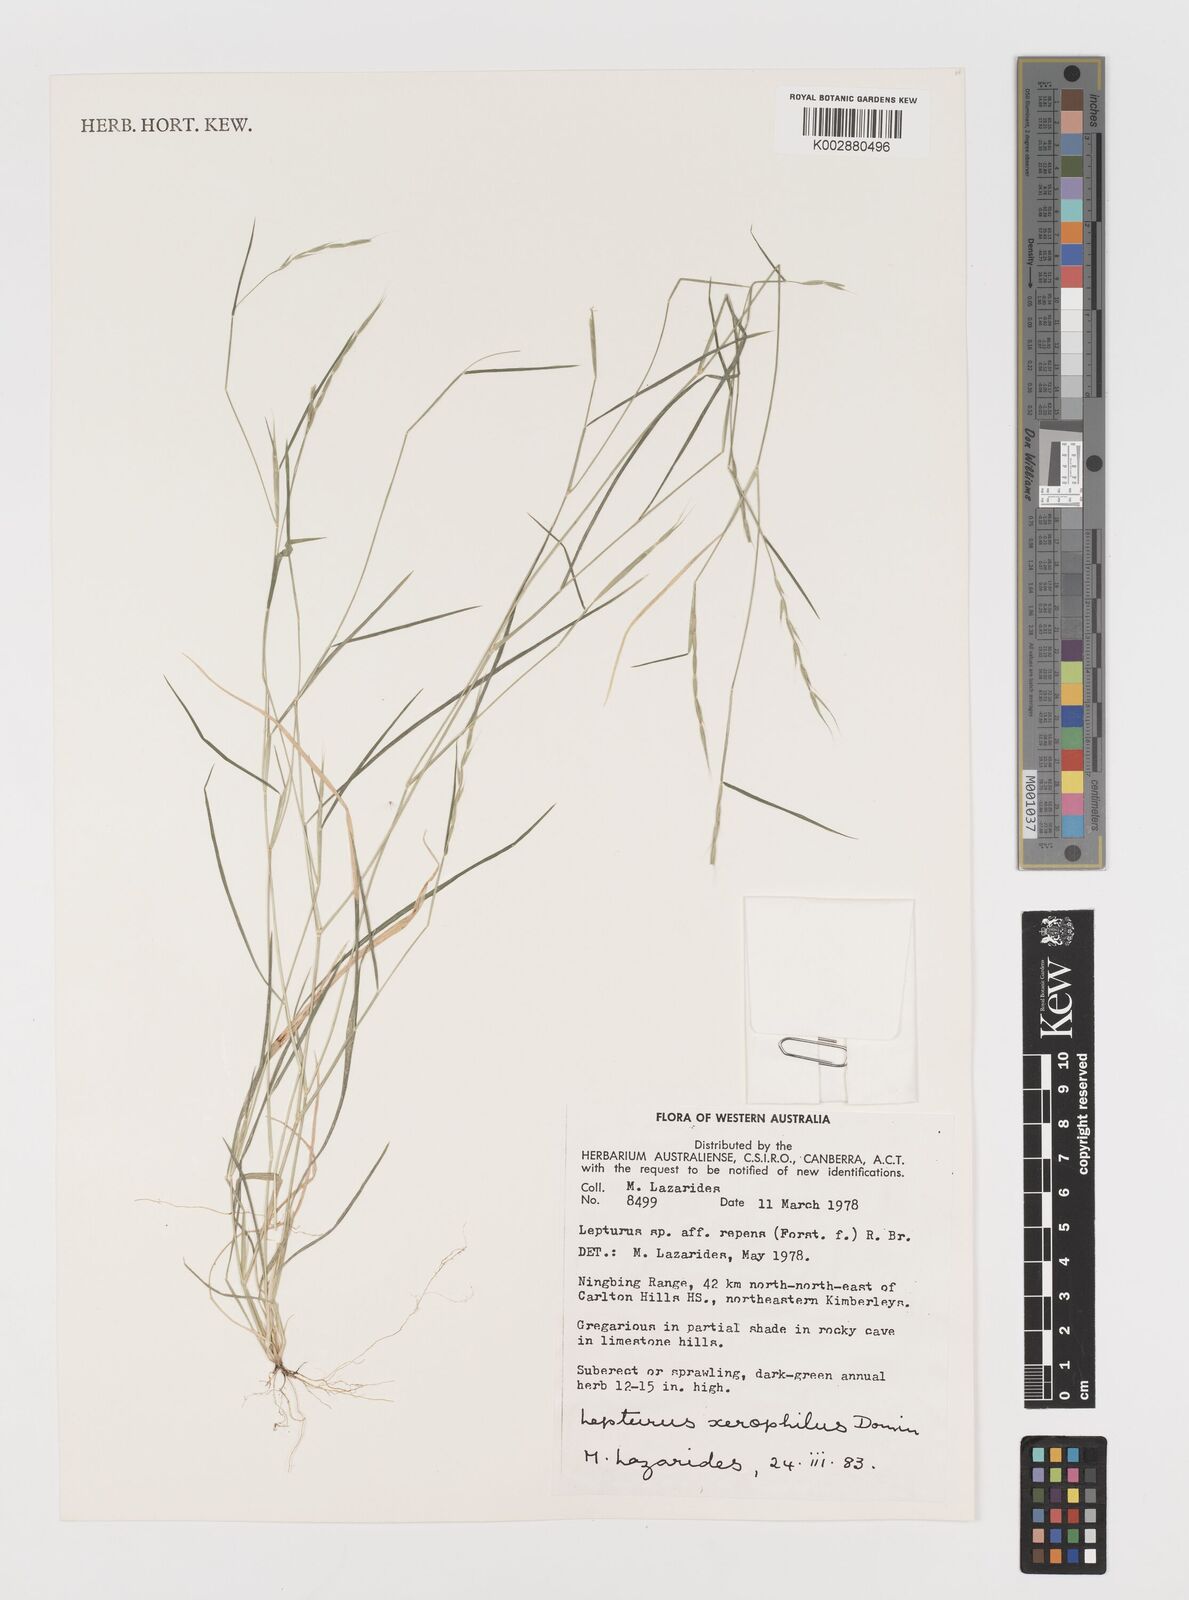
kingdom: Plantae
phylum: Tracheophyta
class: Liliopsida
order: Poales
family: Poaceae
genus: Lepturus
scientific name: Lepturus xerophilus
